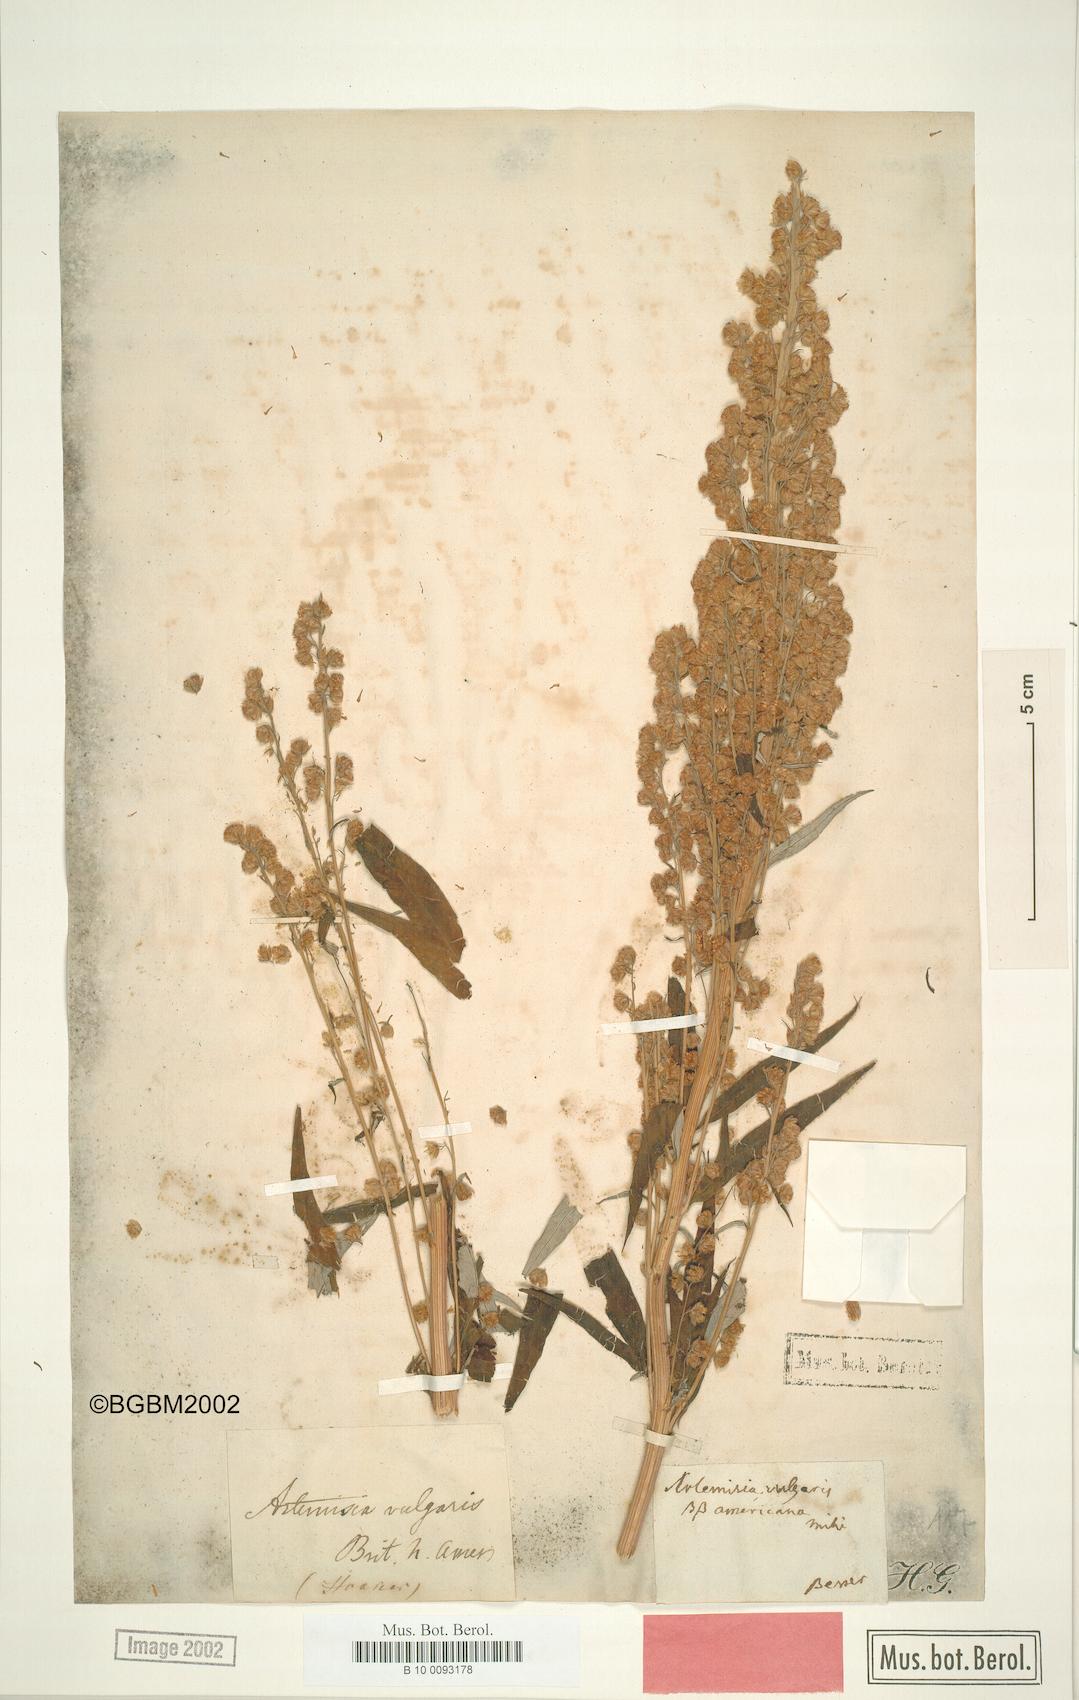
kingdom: Plantae
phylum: Tracheophyta
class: Magnoliopsida
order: Asterales
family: Asteraceae
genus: Artemisia
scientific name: Artemisia ludoviciana
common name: Western mugwort
